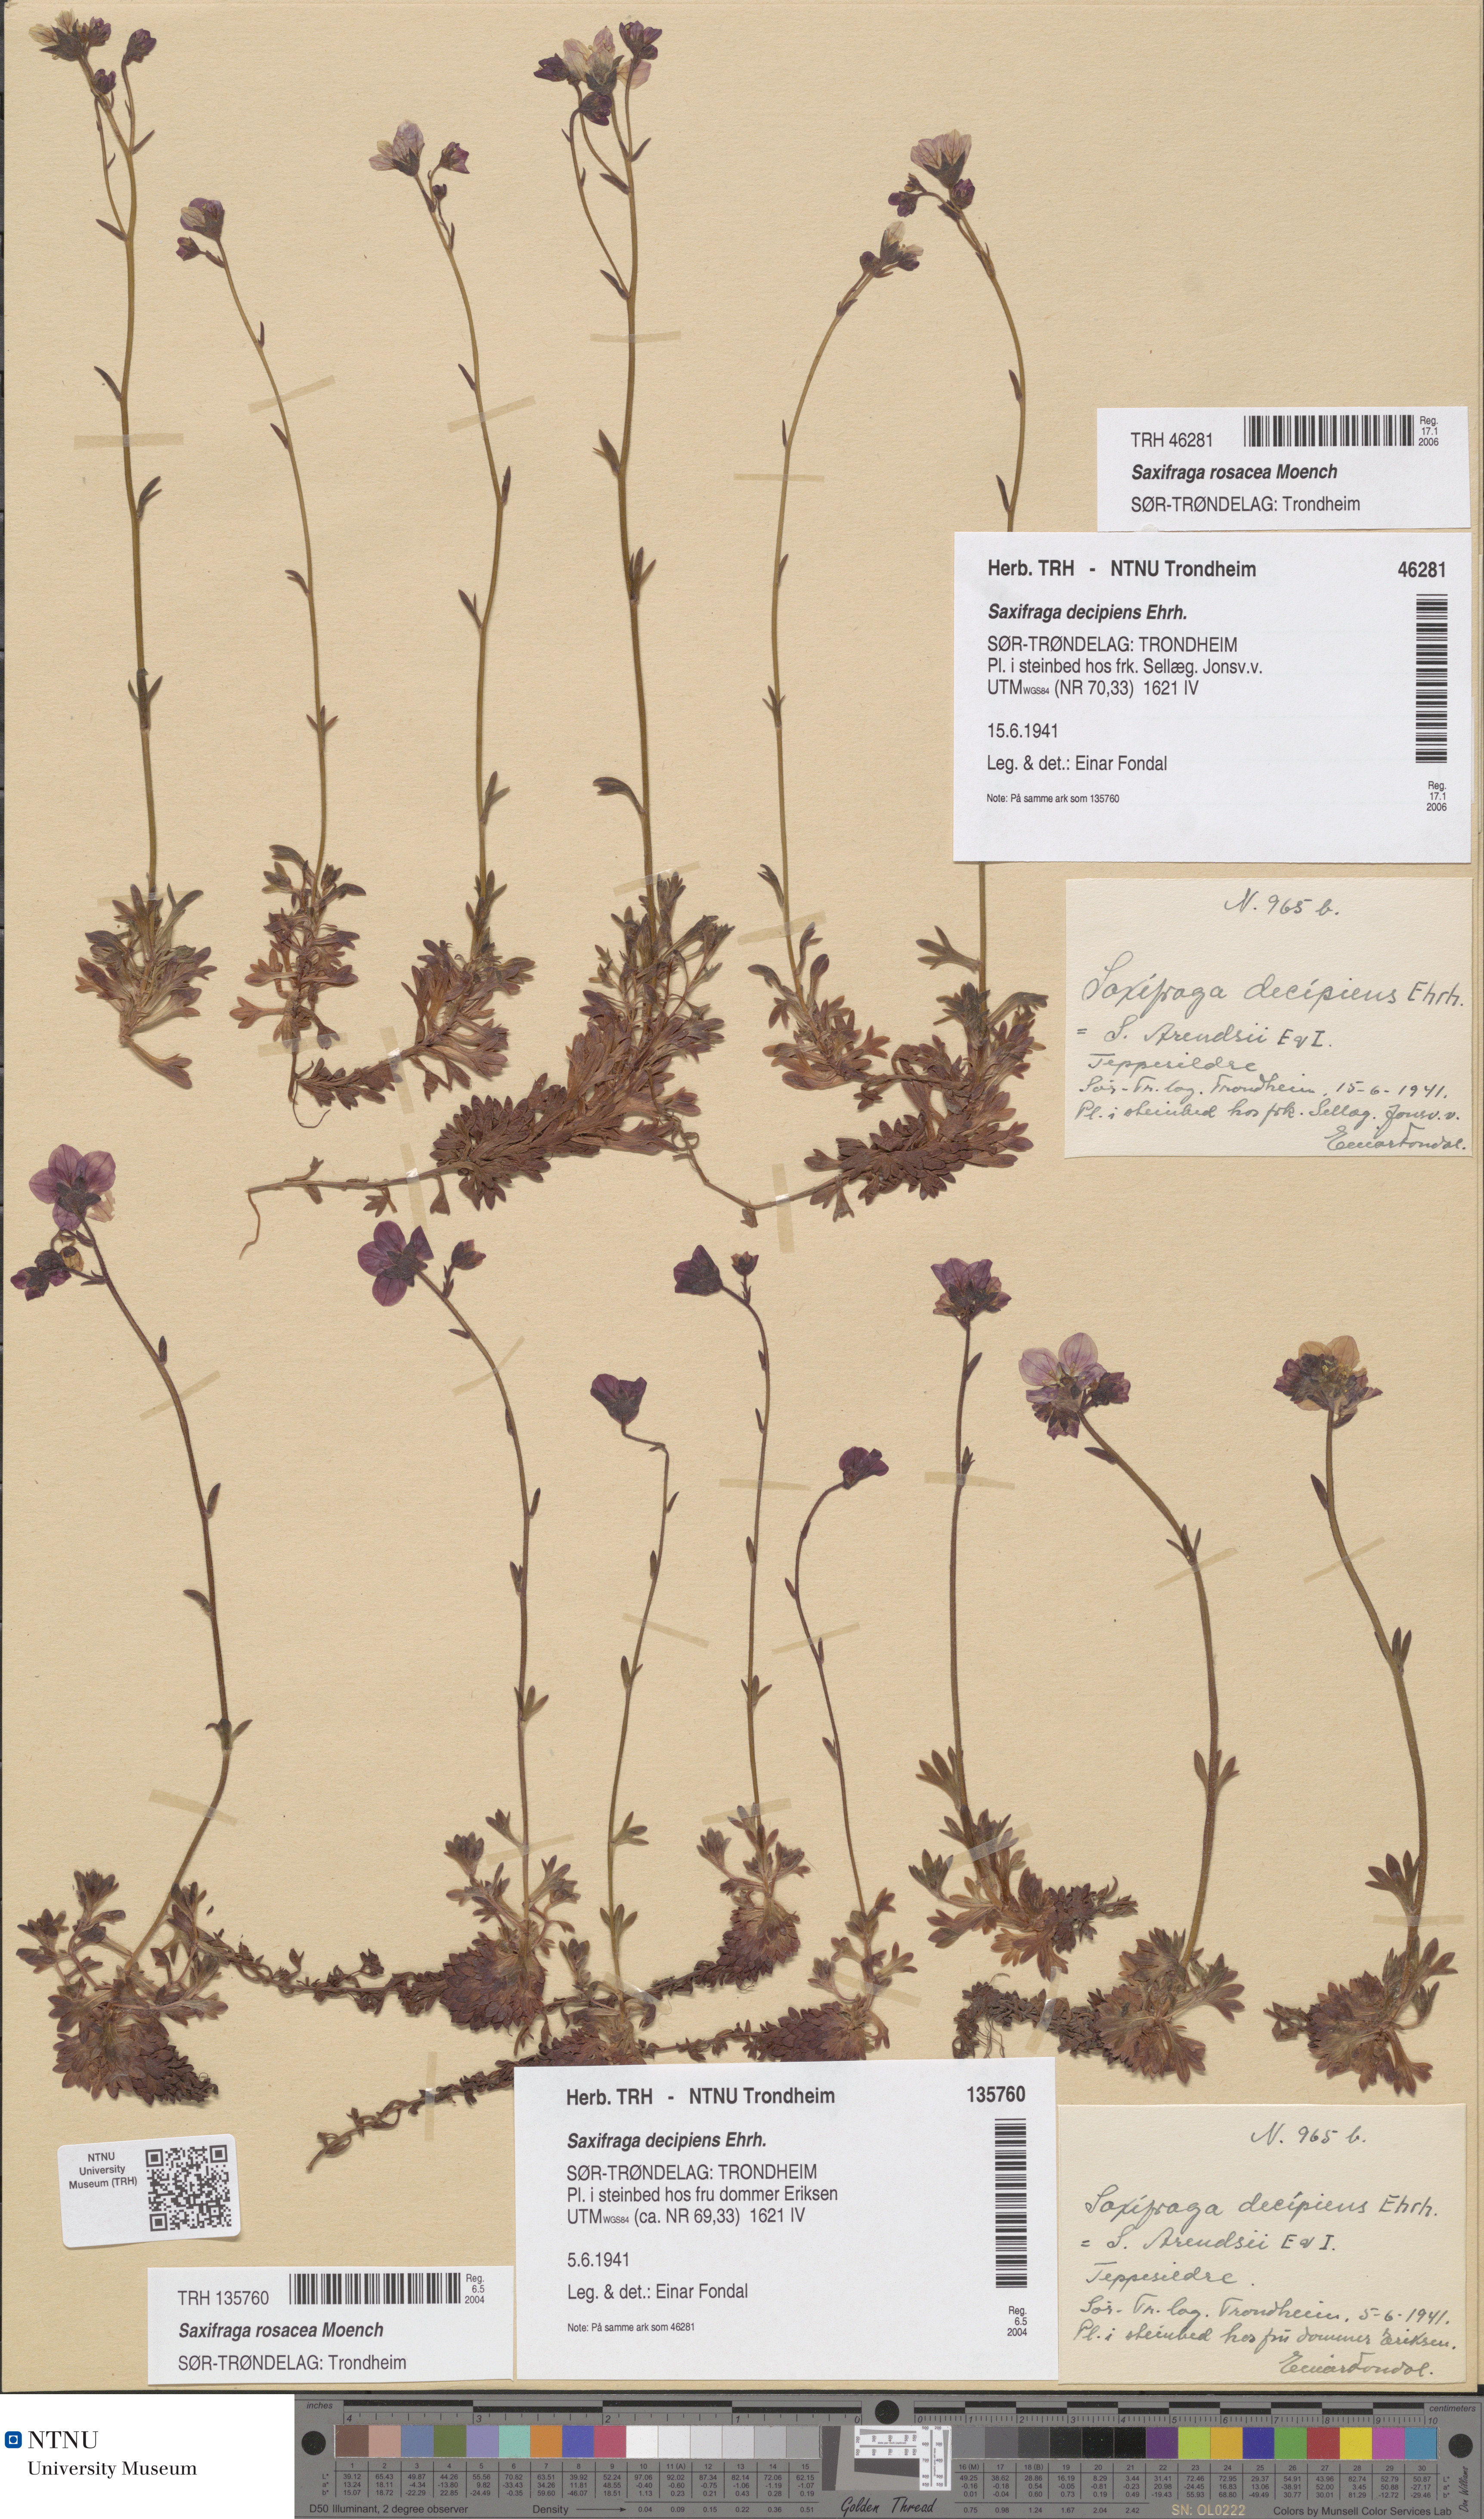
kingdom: Plantae
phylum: Tracheophyta
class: Magnoliopsida
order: Saxifragales
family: Saxifragaceae
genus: Saxifraga
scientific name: Saxifraga rosacea
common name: Irish saxifrage
